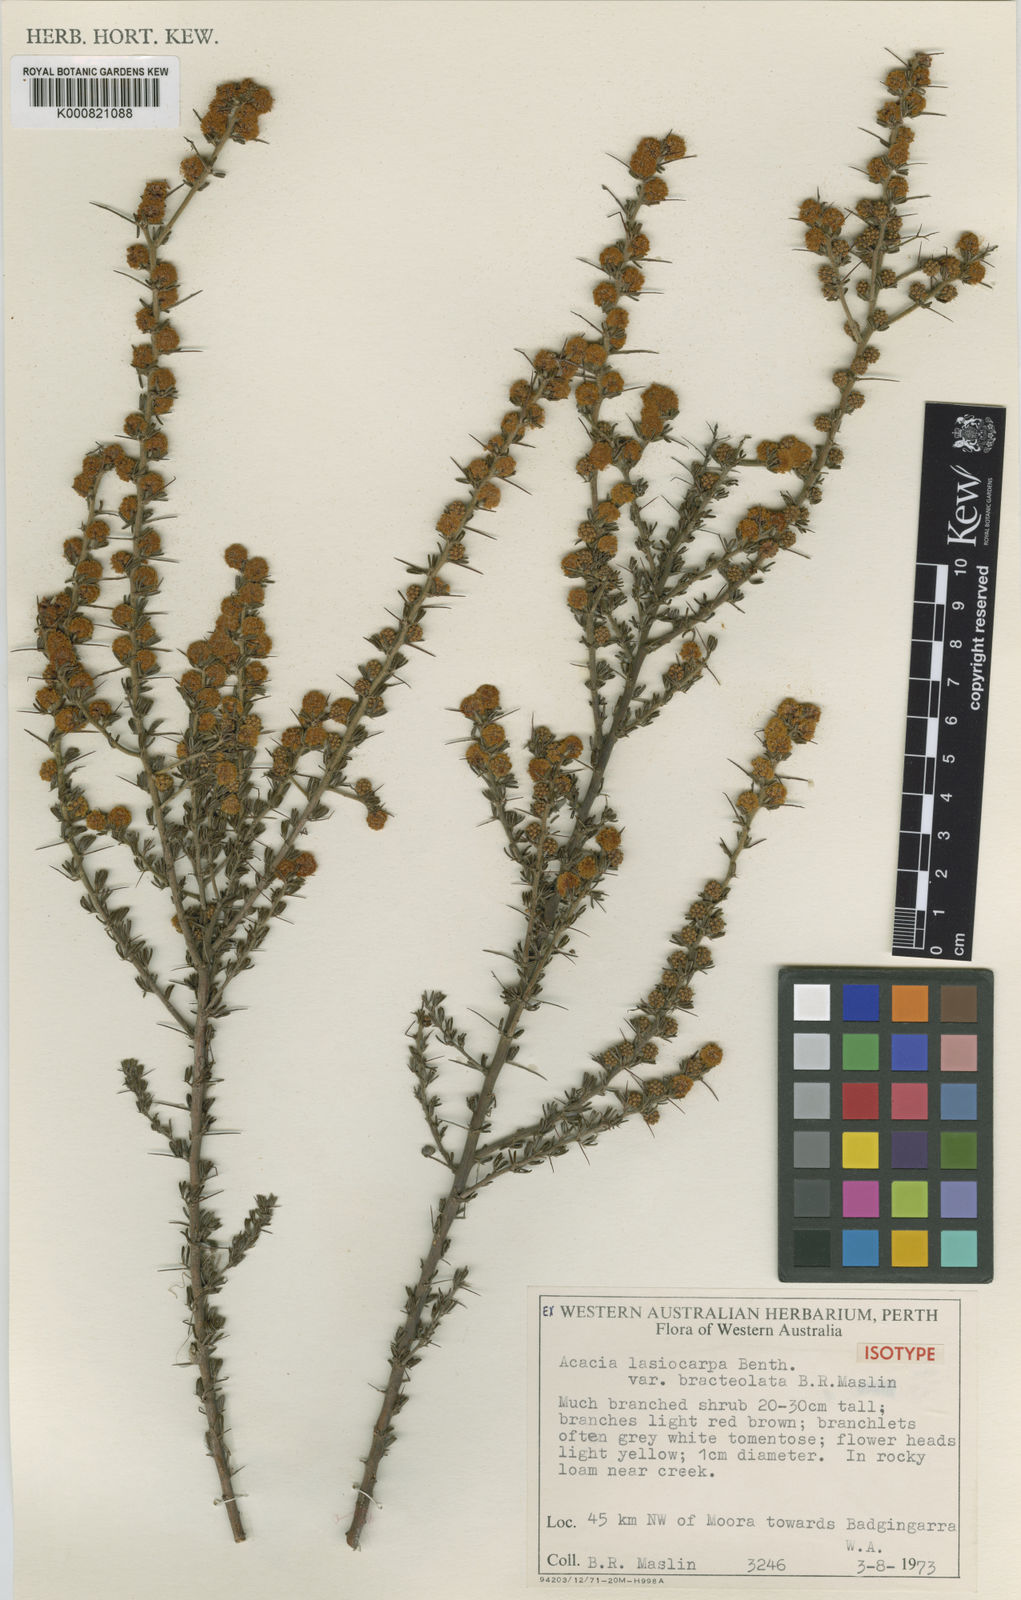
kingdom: Plantae
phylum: Tracheophyta
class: Magnoliopsida
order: Fabales
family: Fabaceae
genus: Acacia
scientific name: Acacia lasiocarpa
